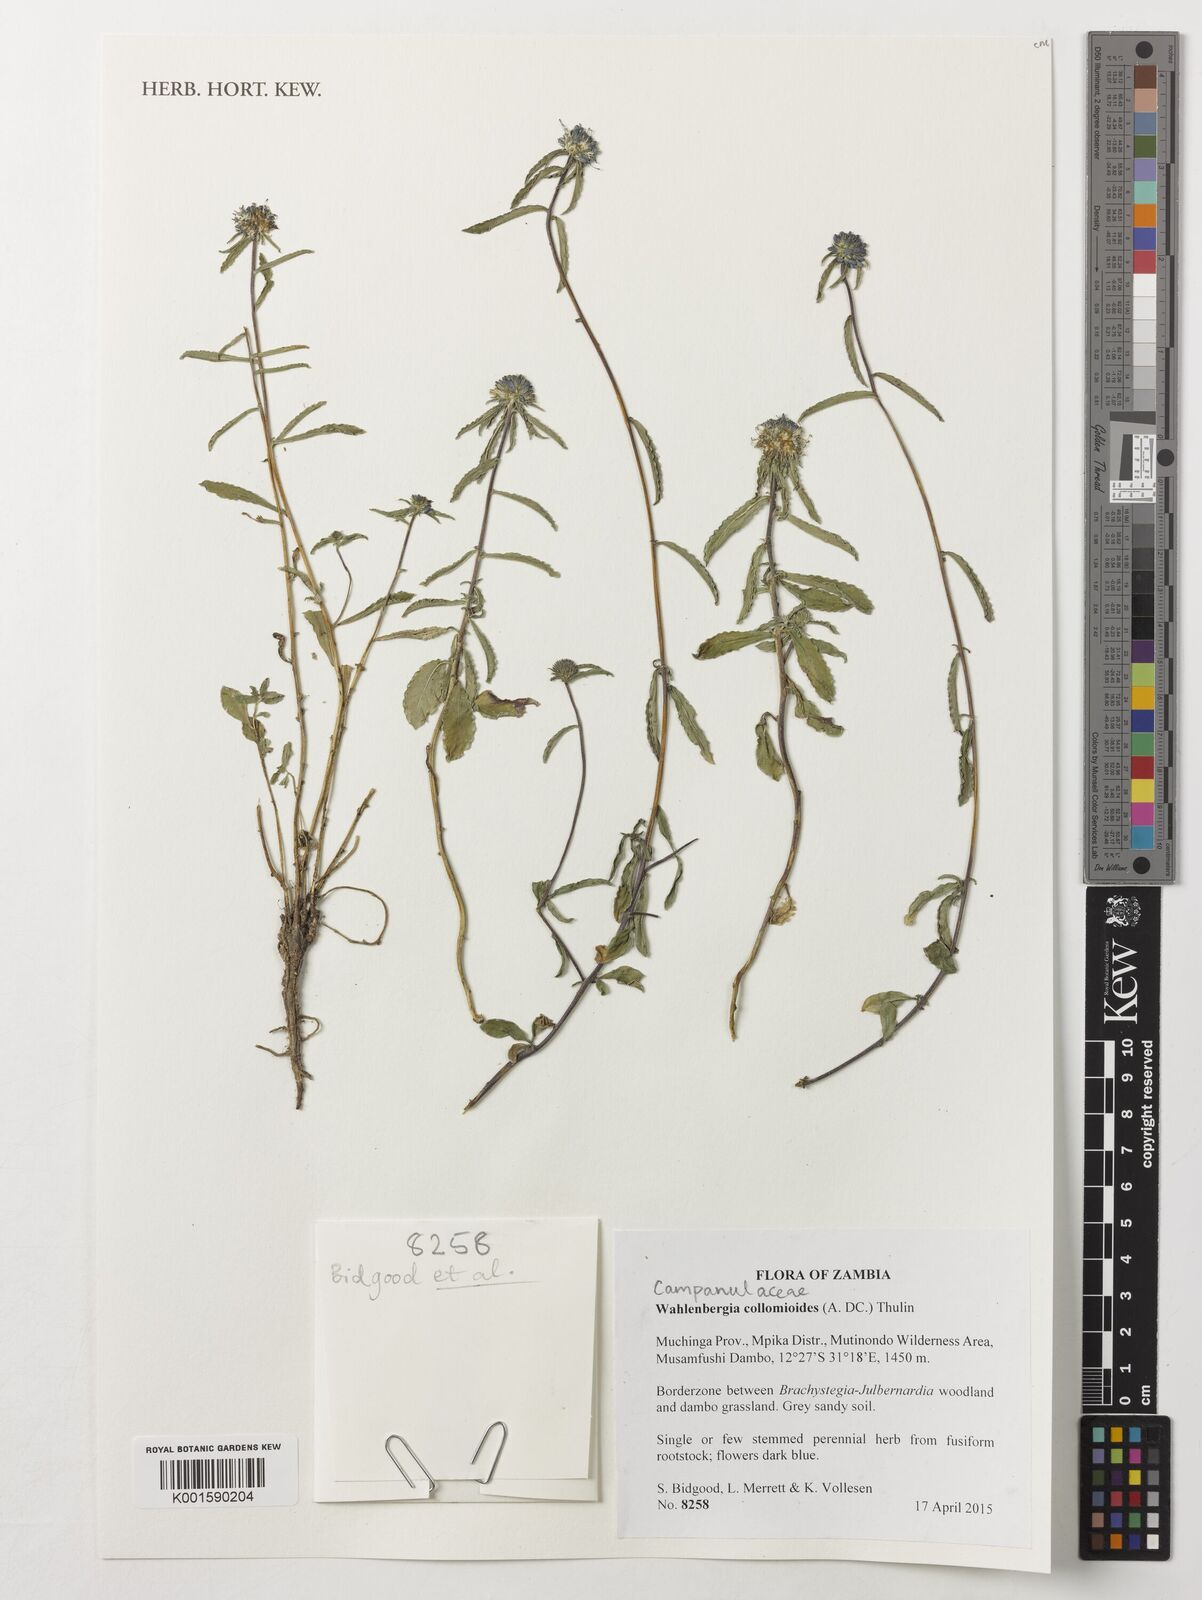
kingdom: Plantae
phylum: Tracheophyta
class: Magnoliopsida
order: Asterales
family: Campanulaceae
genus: Wahlenbergia
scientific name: Wahlenbergia collomioides
